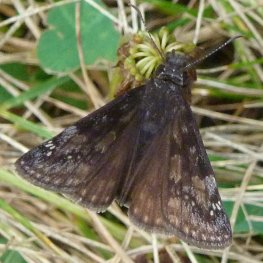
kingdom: Animalia
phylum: Arthropoda
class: Insecta
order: Lepidoptera
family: Hesperiidae
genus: Gesta
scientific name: Gesta
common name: Wild Indigo Duskywing
